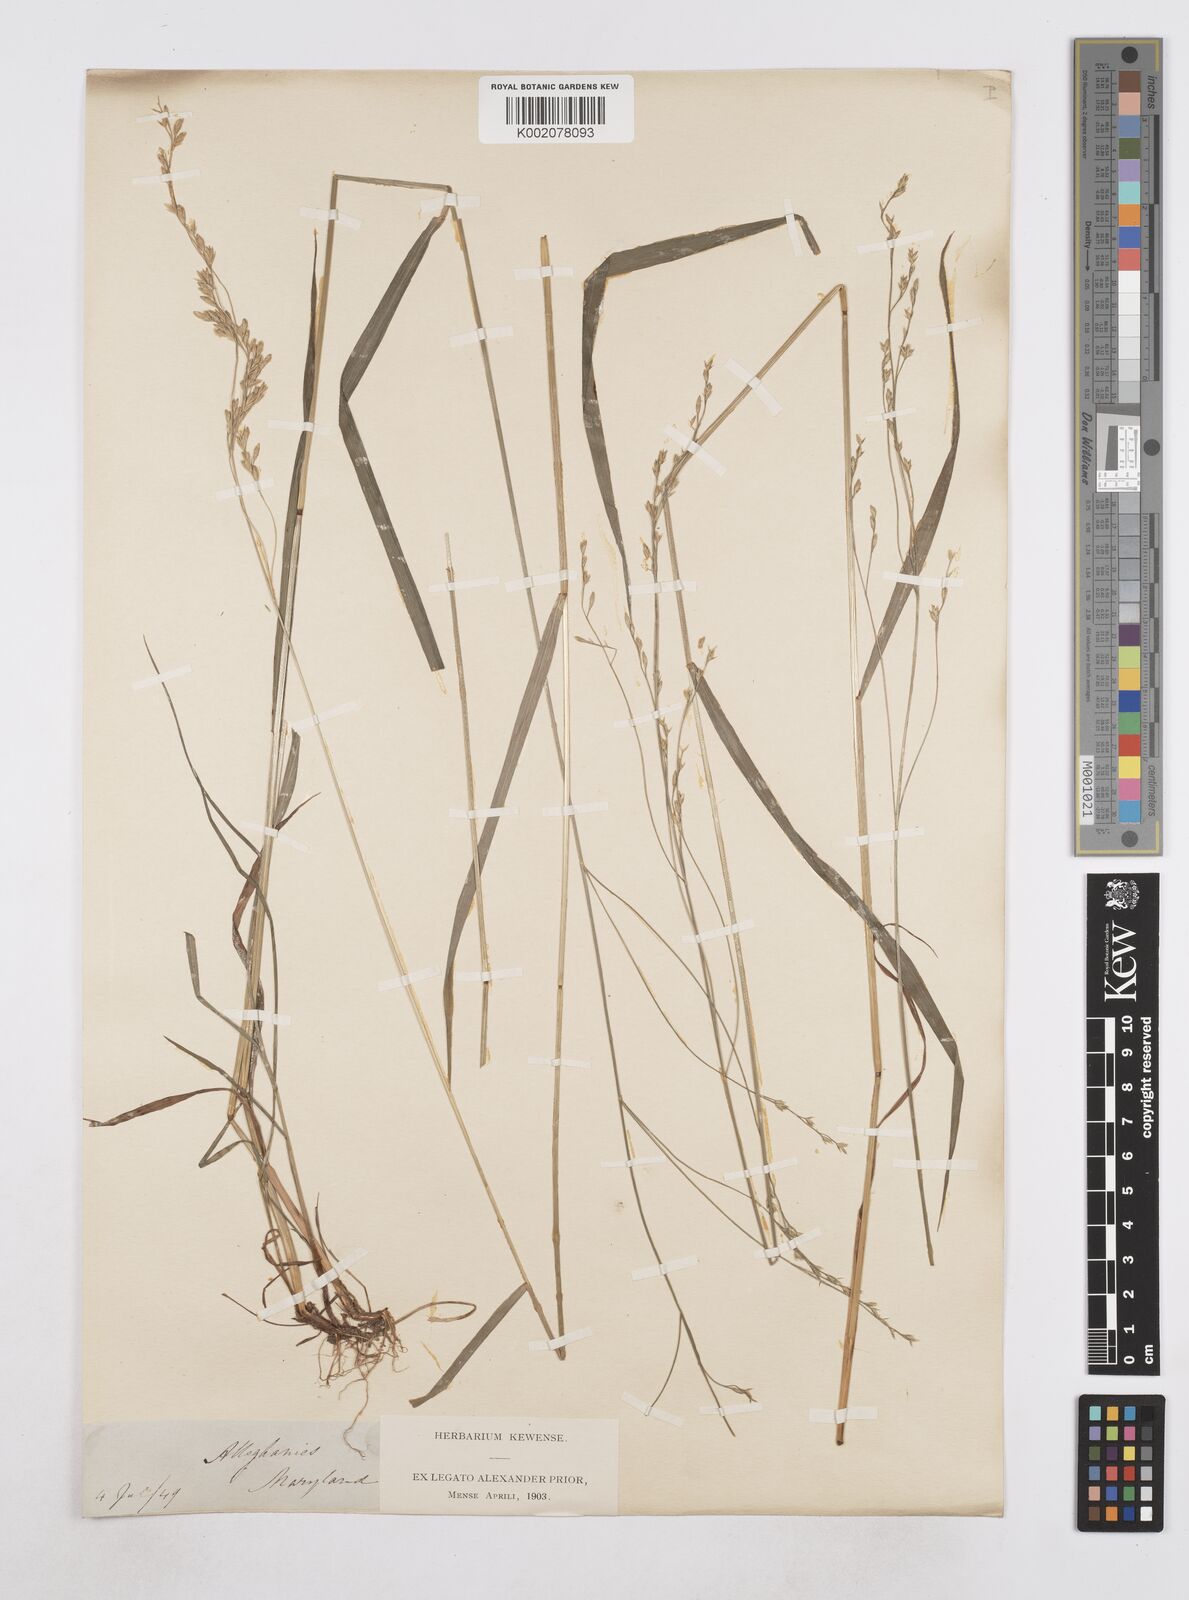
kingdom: Plantae
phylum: Tracheophyta
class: Liliopsida
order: Poales
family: Poaceae
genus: Poa
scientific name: Poa
